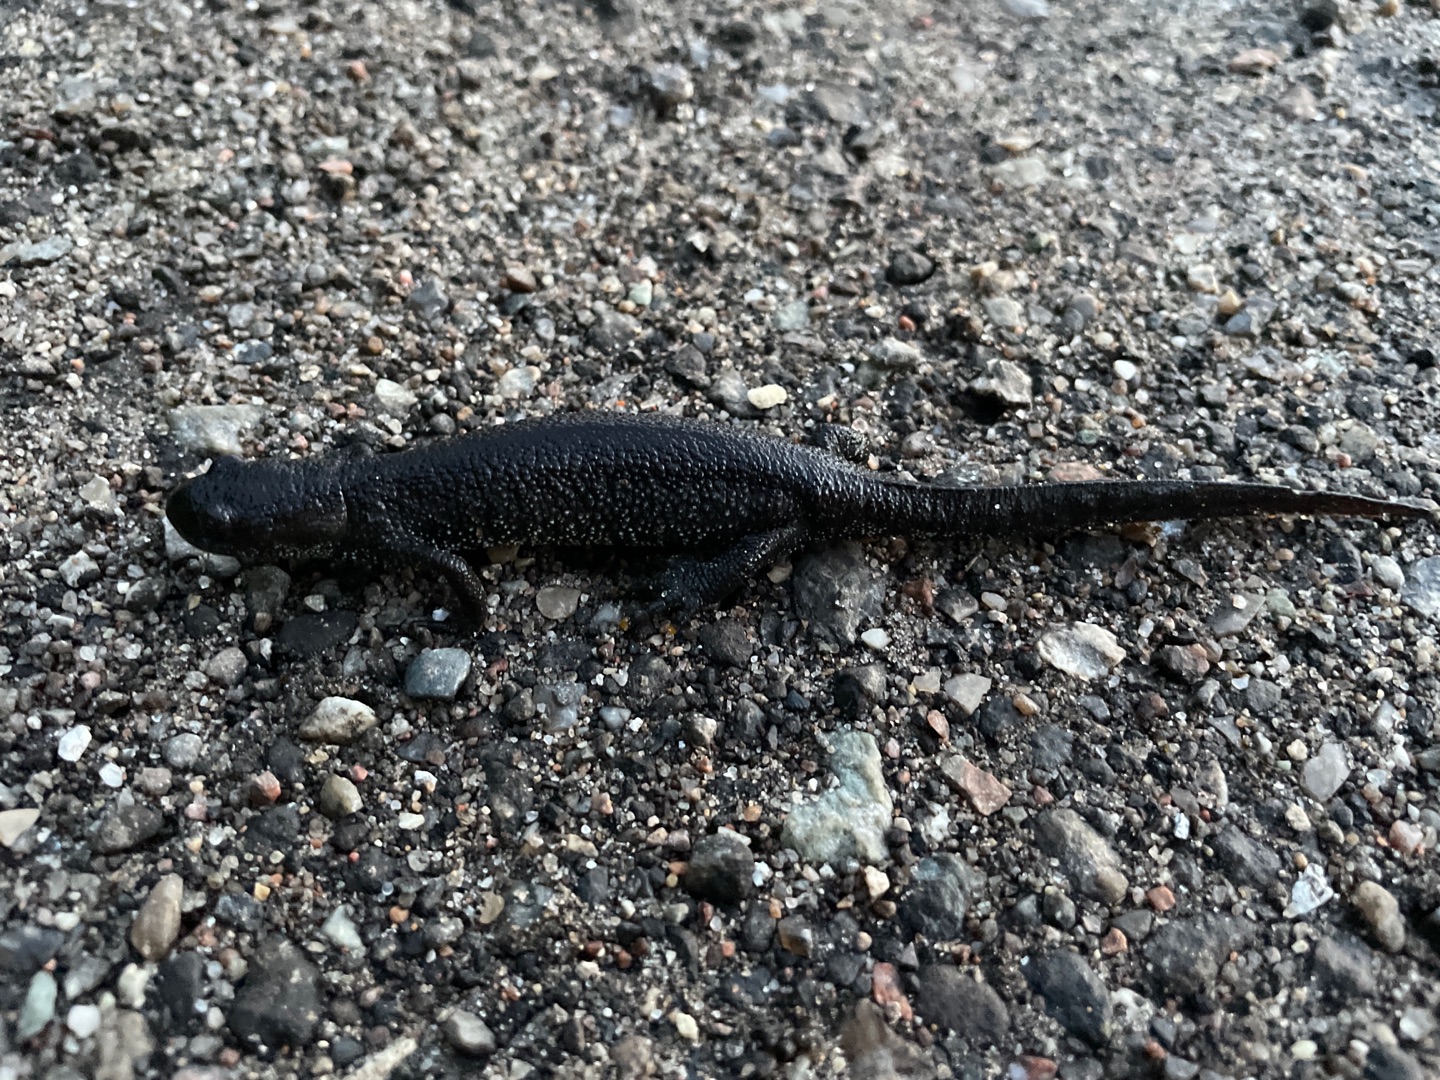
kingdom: Animalia
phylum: Chordata
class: Amphibia
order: Caudata
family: Salamandridae
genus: Triturus
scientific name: Triturus cristatus
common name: Stor vandsalamander
